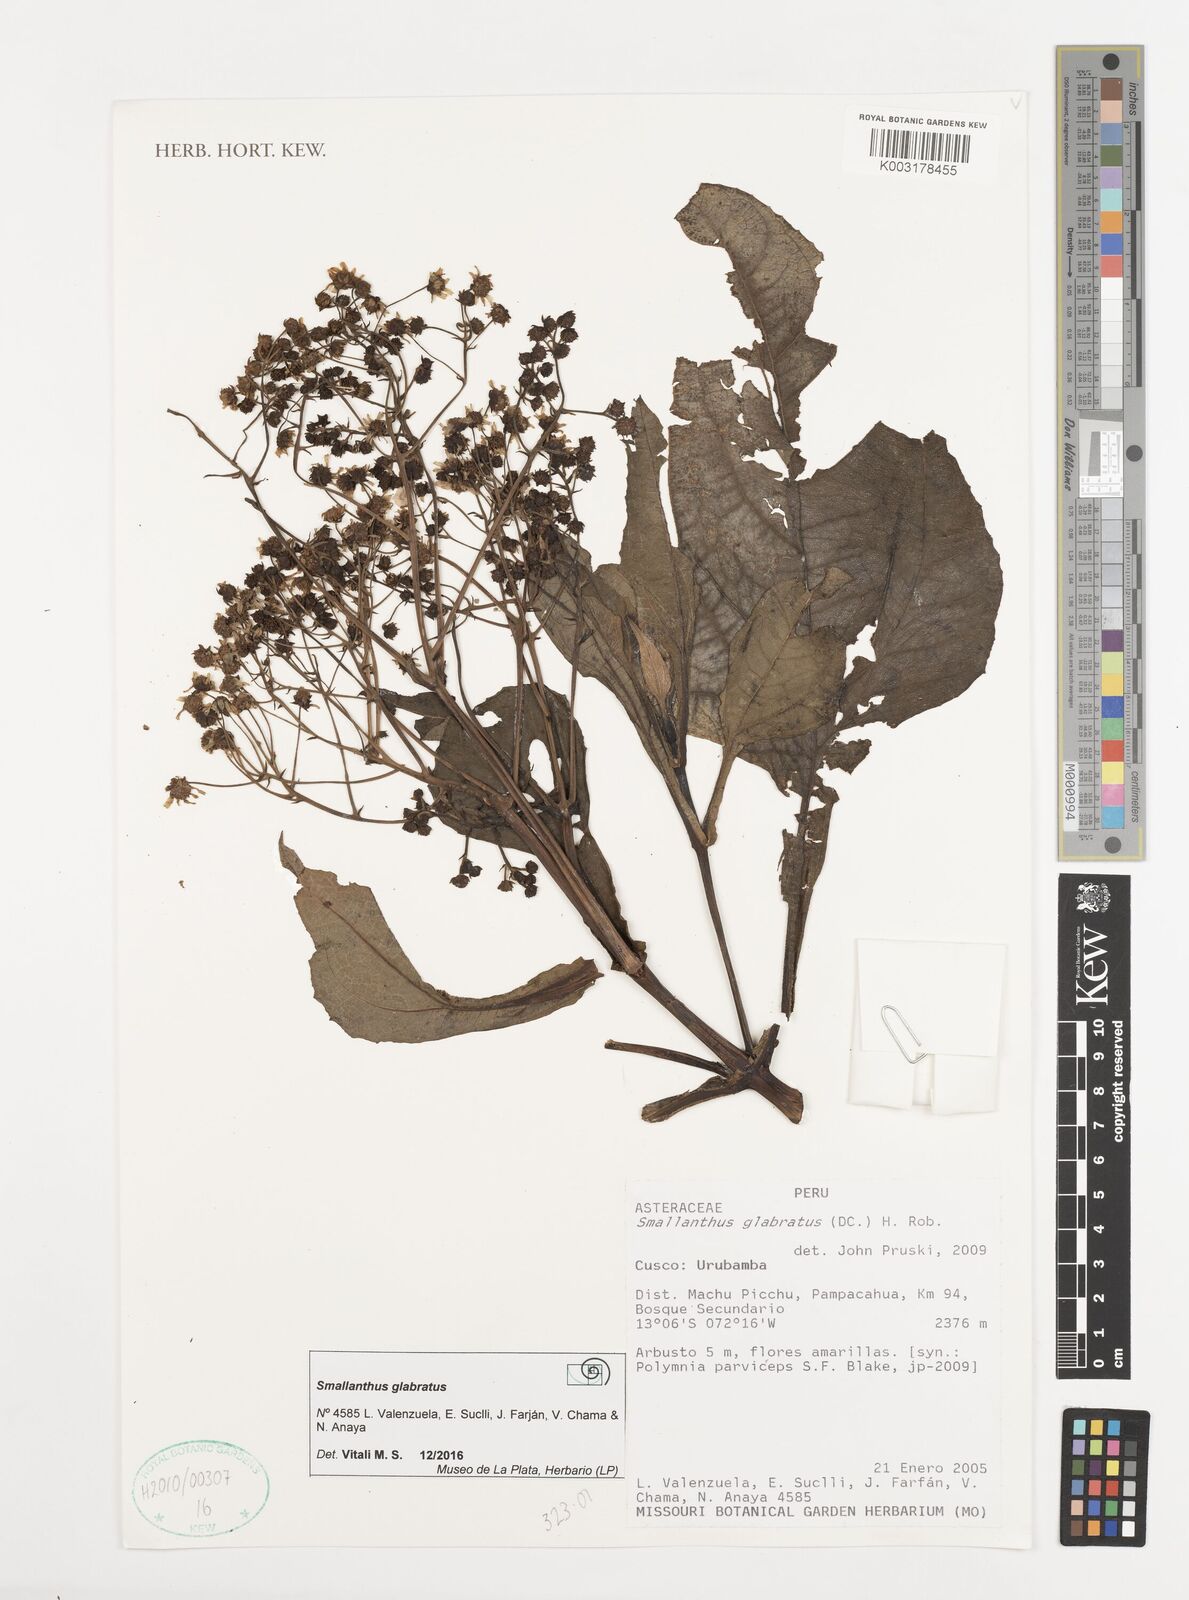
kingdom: Plantae
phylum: Tracheophyta
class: Magnoliopsida
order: Asterales
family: Asteraceae
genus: Smallanthus
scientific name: Smallanthus glabratus
